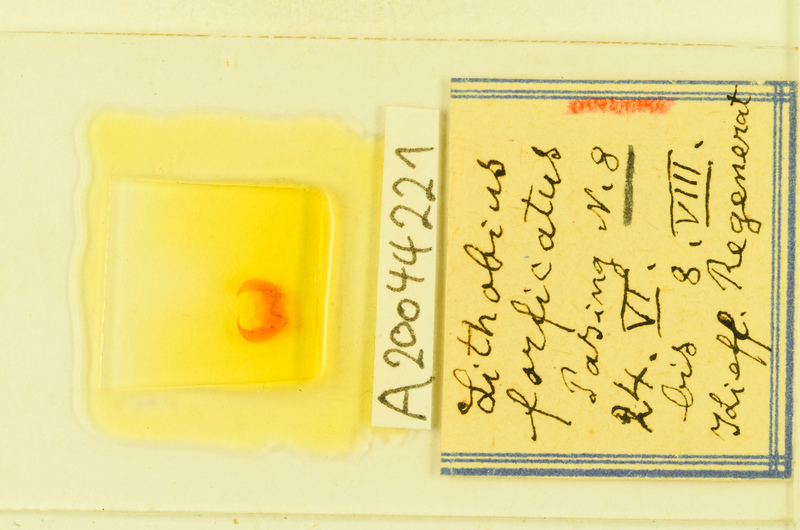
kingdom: Animalia
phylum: Arthropoda
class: Chilopoda
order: Lithobiomorpha
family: Lithobiidae
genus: Lithobius
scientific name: Lithobius forficatus
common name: Centipede
